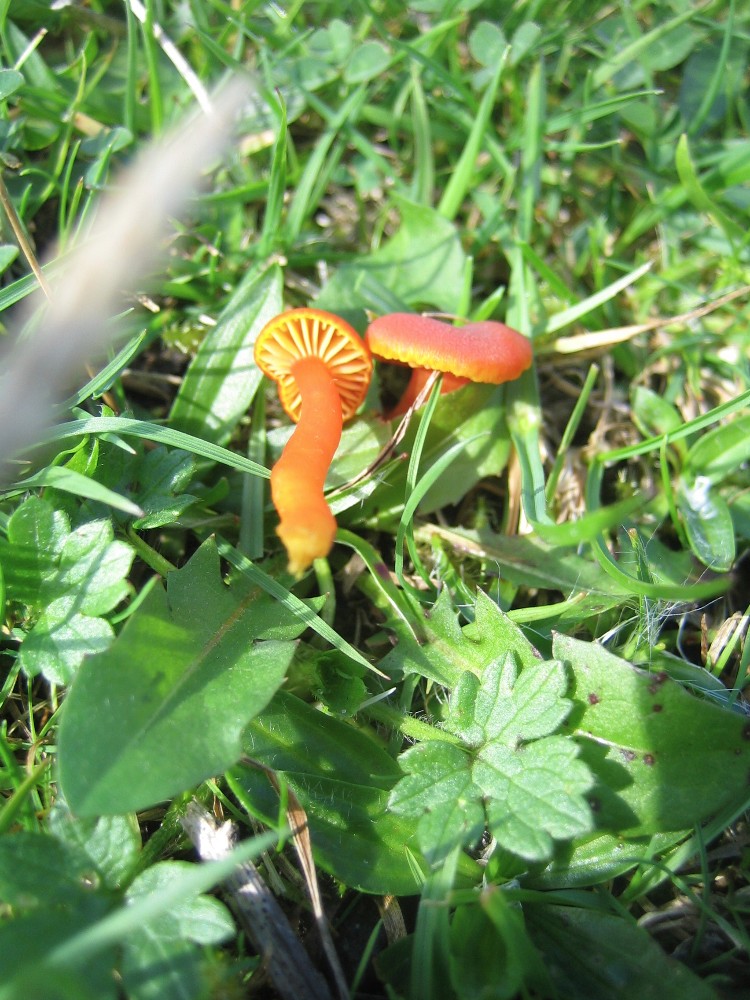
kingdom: Fungi
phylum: Basidiomycota
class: Agaricomycetes
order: Agaricales
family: Hygrophoraceae
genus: Hygrocybe
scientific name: Hygrocybe miniata
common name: mønje-vokshat
